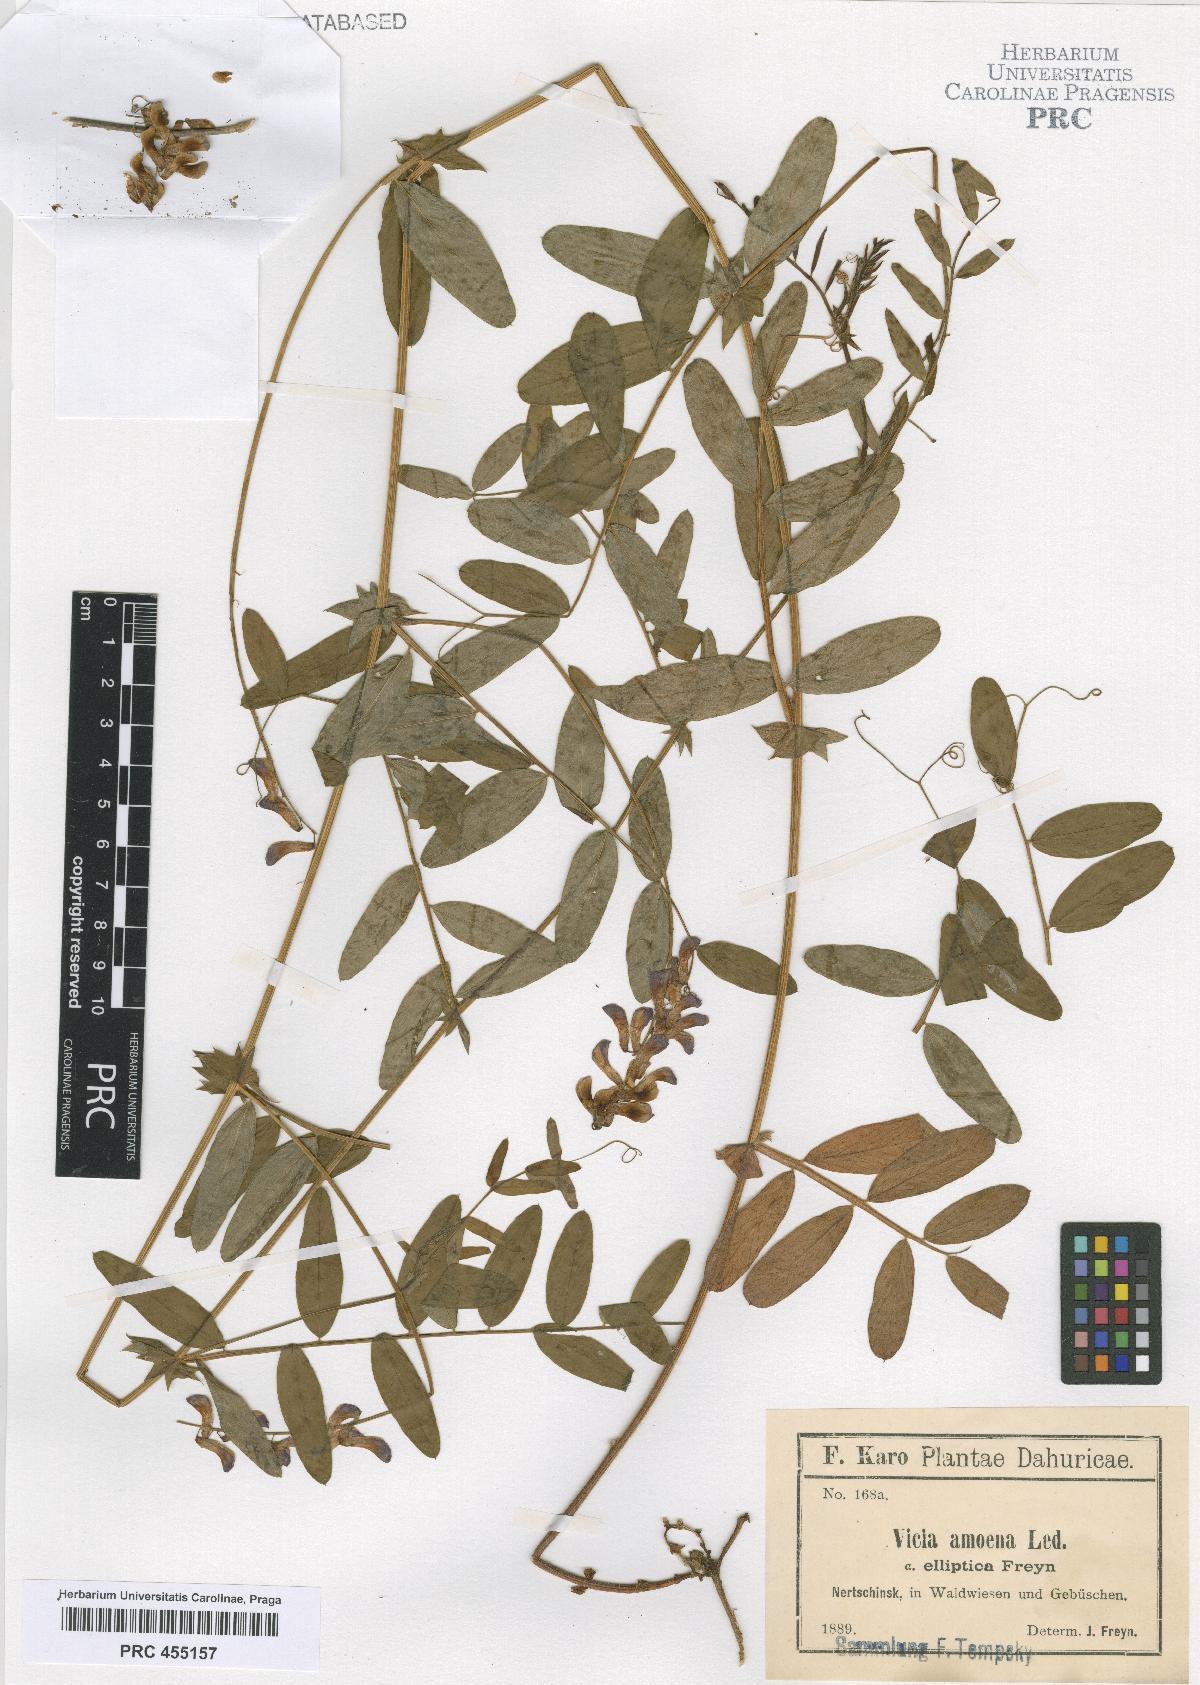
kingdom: Plantae
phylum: Tracheophyta
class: Magnoliopsida
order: Fabales
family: Fabaceae
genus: Vicia
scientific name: Vicia amoena
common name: Cheder ebs
